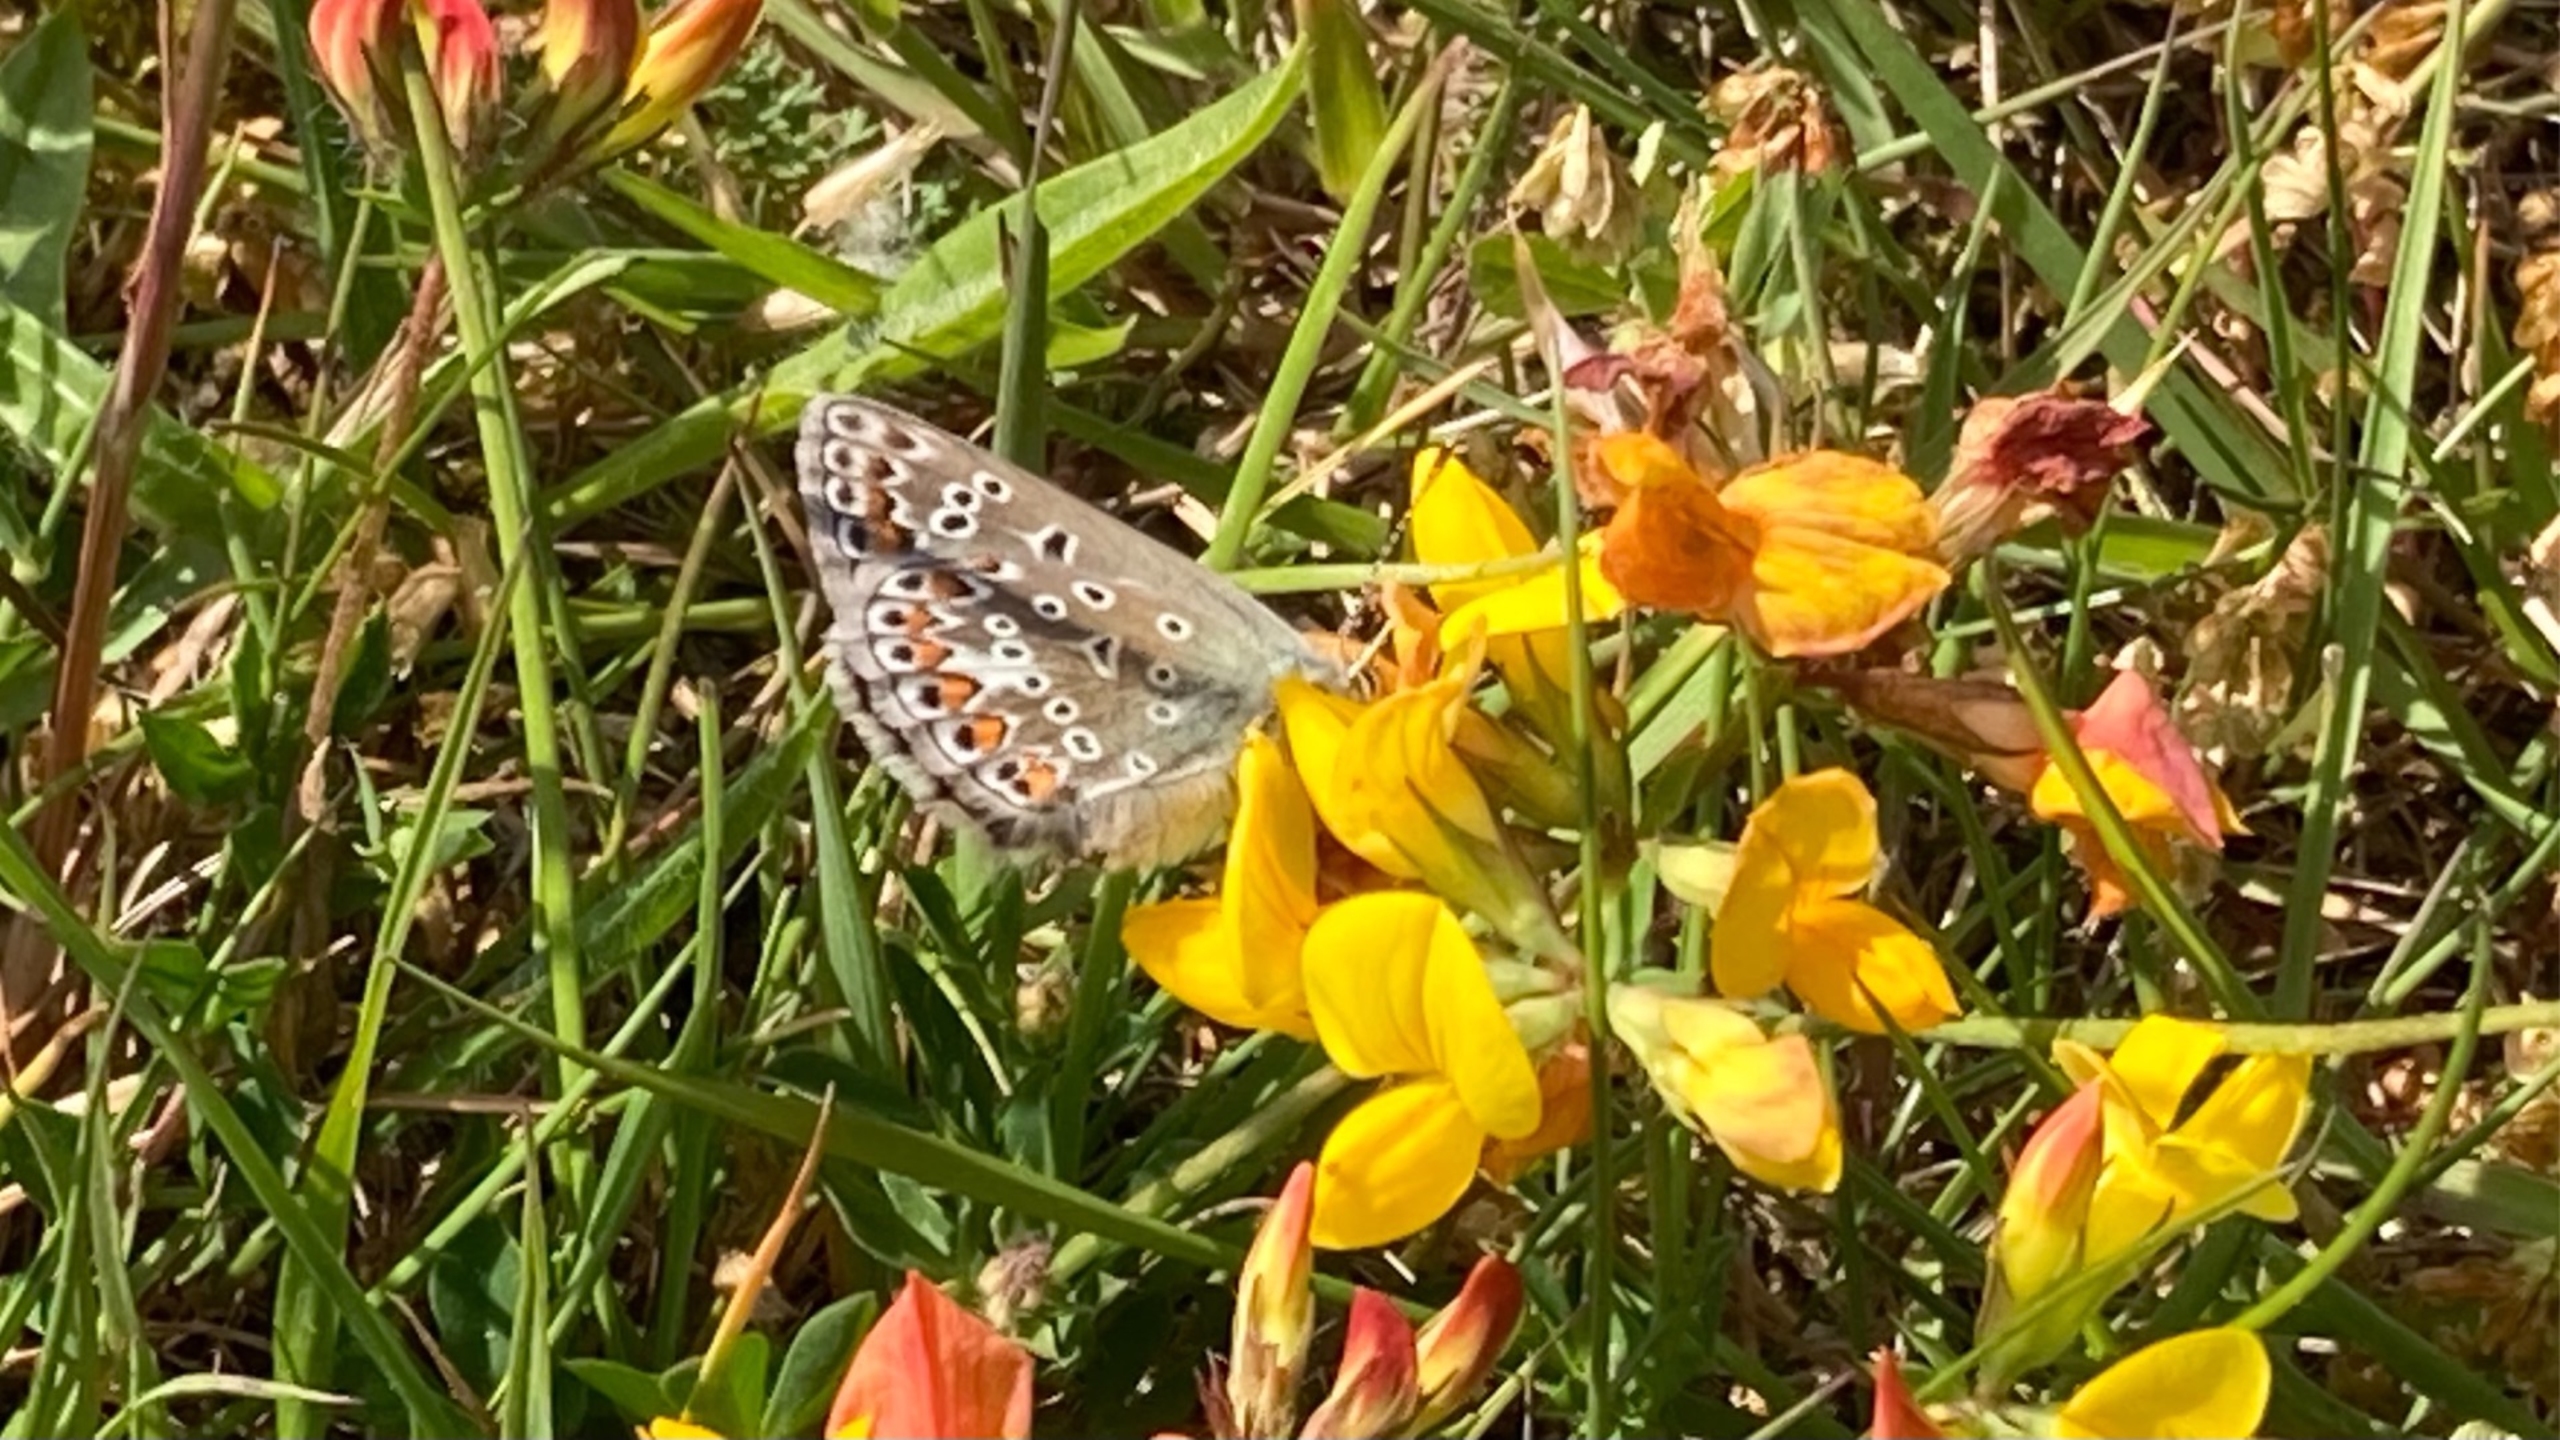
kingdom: Animalia
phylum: Arthropoda
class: Insecta
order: Lepidoptera
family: Lycaenidae
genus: Polyommatus
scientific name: Polyommatus icarus
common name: Almindelig blåfugl
